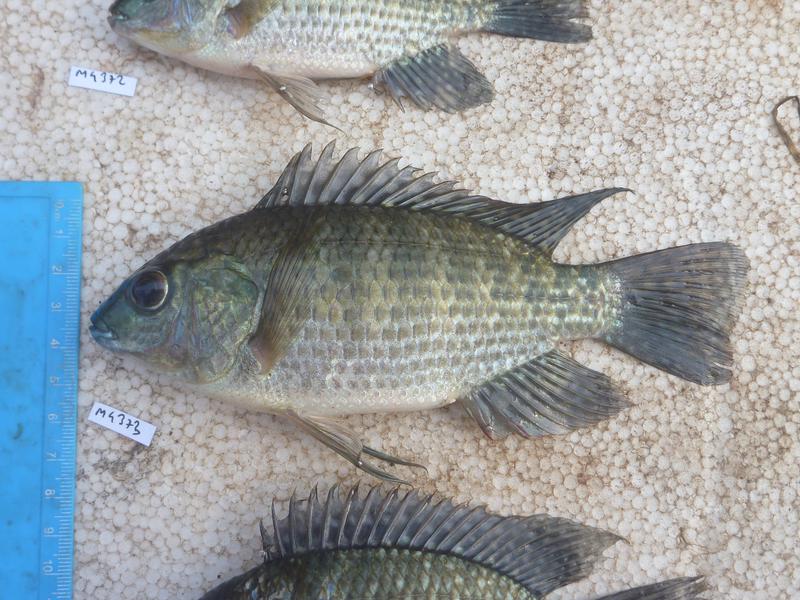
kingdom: Animalia
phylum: Chordata
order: Perciformes
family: Cichlidae
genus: Oreochromis
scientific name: Oreochromis leucostictus
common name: Blue spotted tilapia
